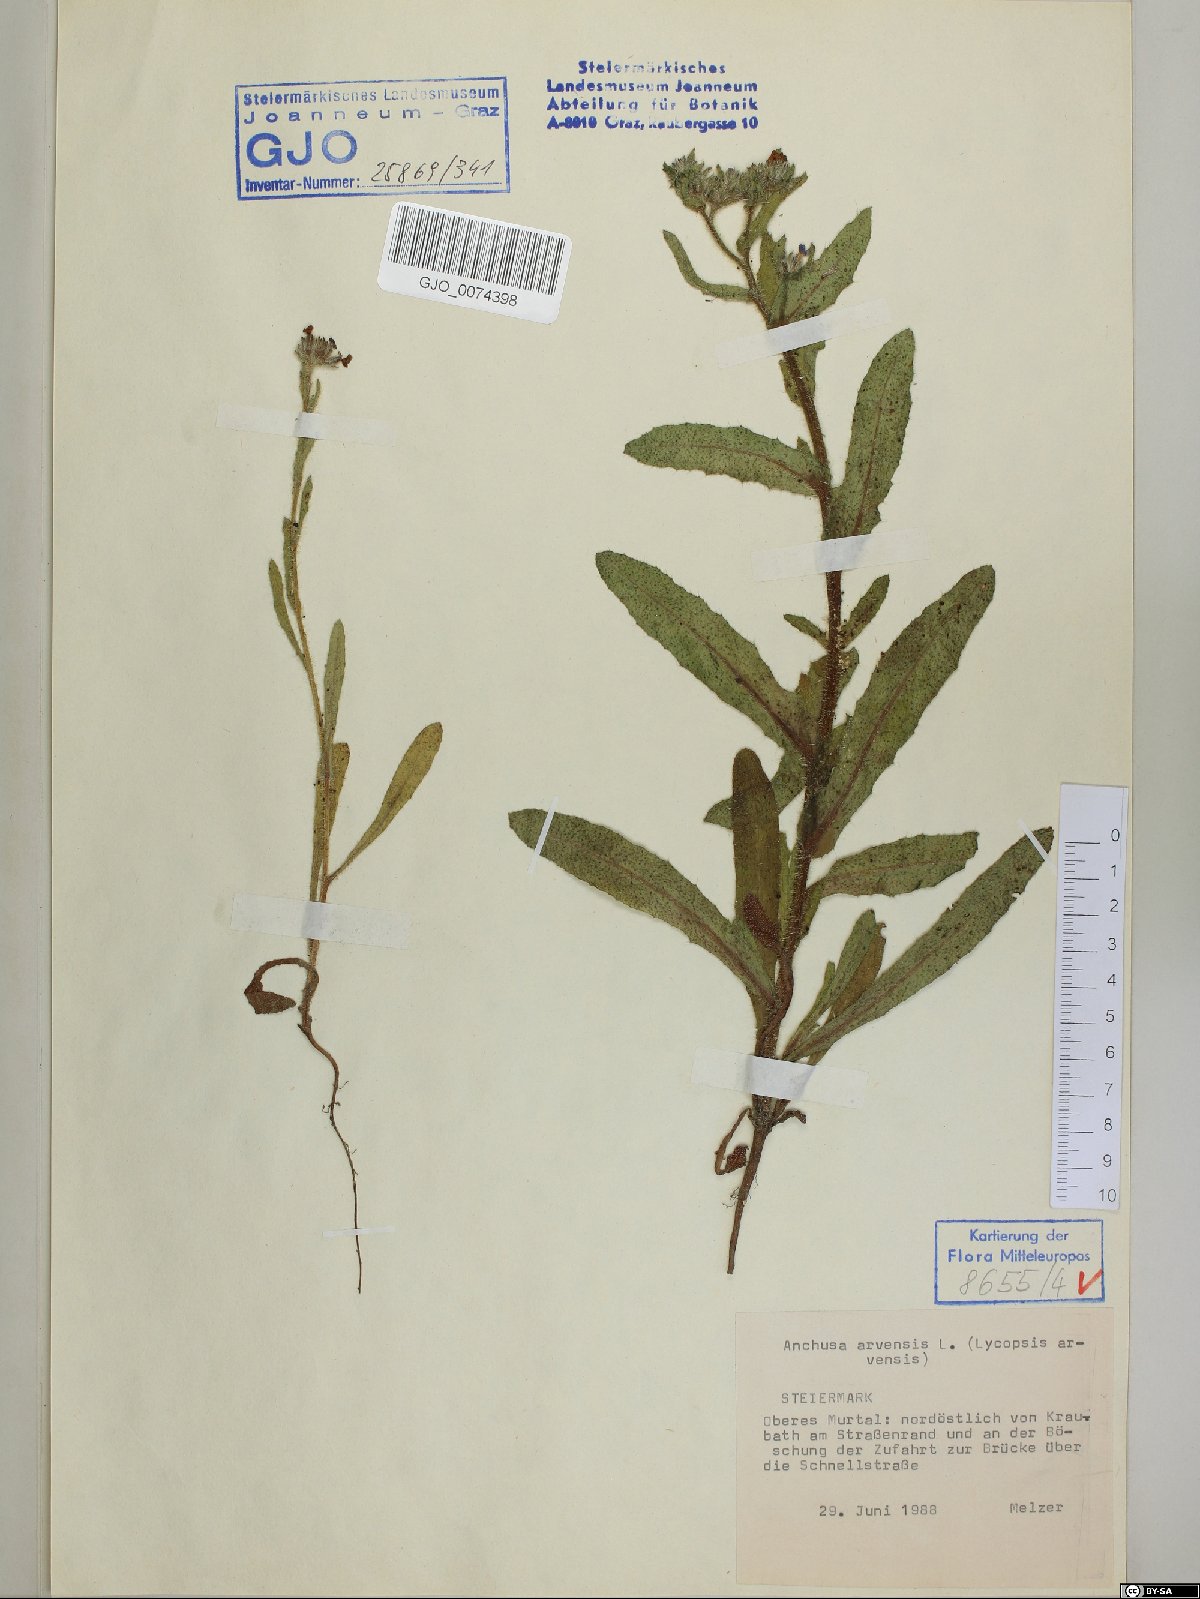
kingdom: Plantae
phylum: Tracheophyta
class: Magnoliopsida
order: Boraginales
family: Boraginaceae
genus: Lycopsis
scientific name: Lycopsis arvensis
